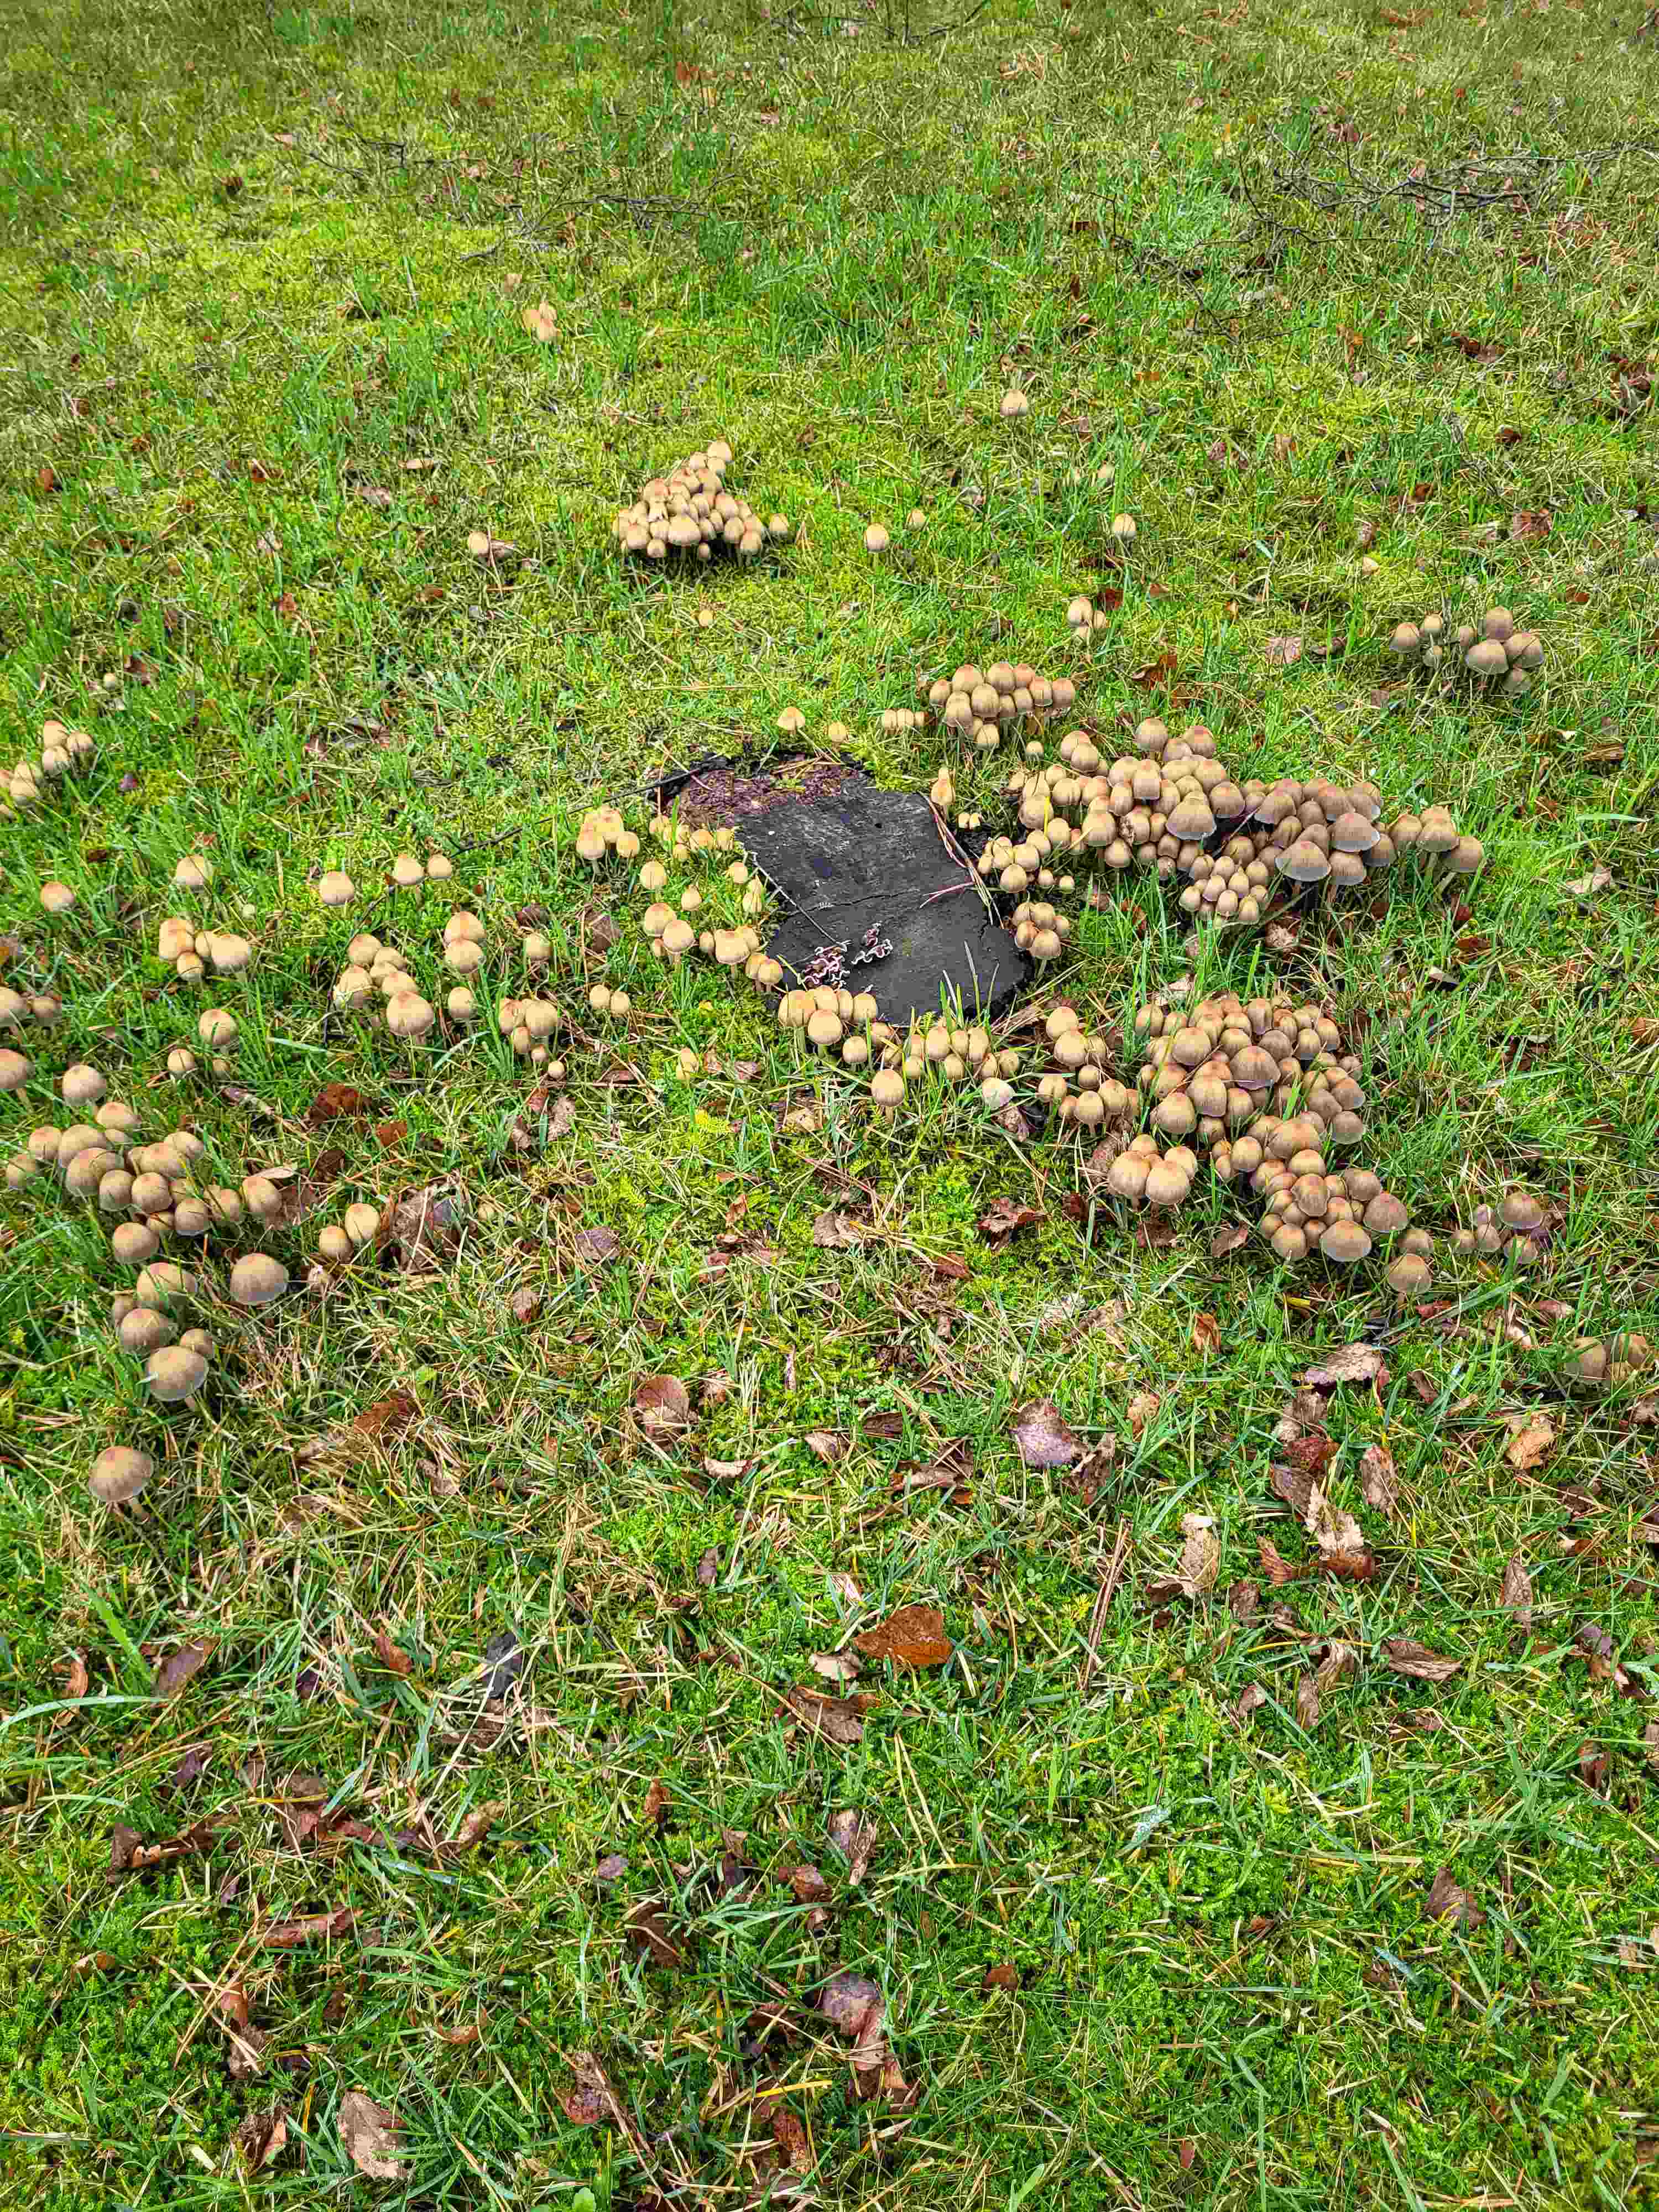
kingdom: Fungi
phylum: Basidiomycota
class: Agaricomycetes
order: Agaricales
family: Psathyrellaceae
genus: Coprinellus
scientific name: Coprinellus micaceus
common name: glimmer-blækhat
